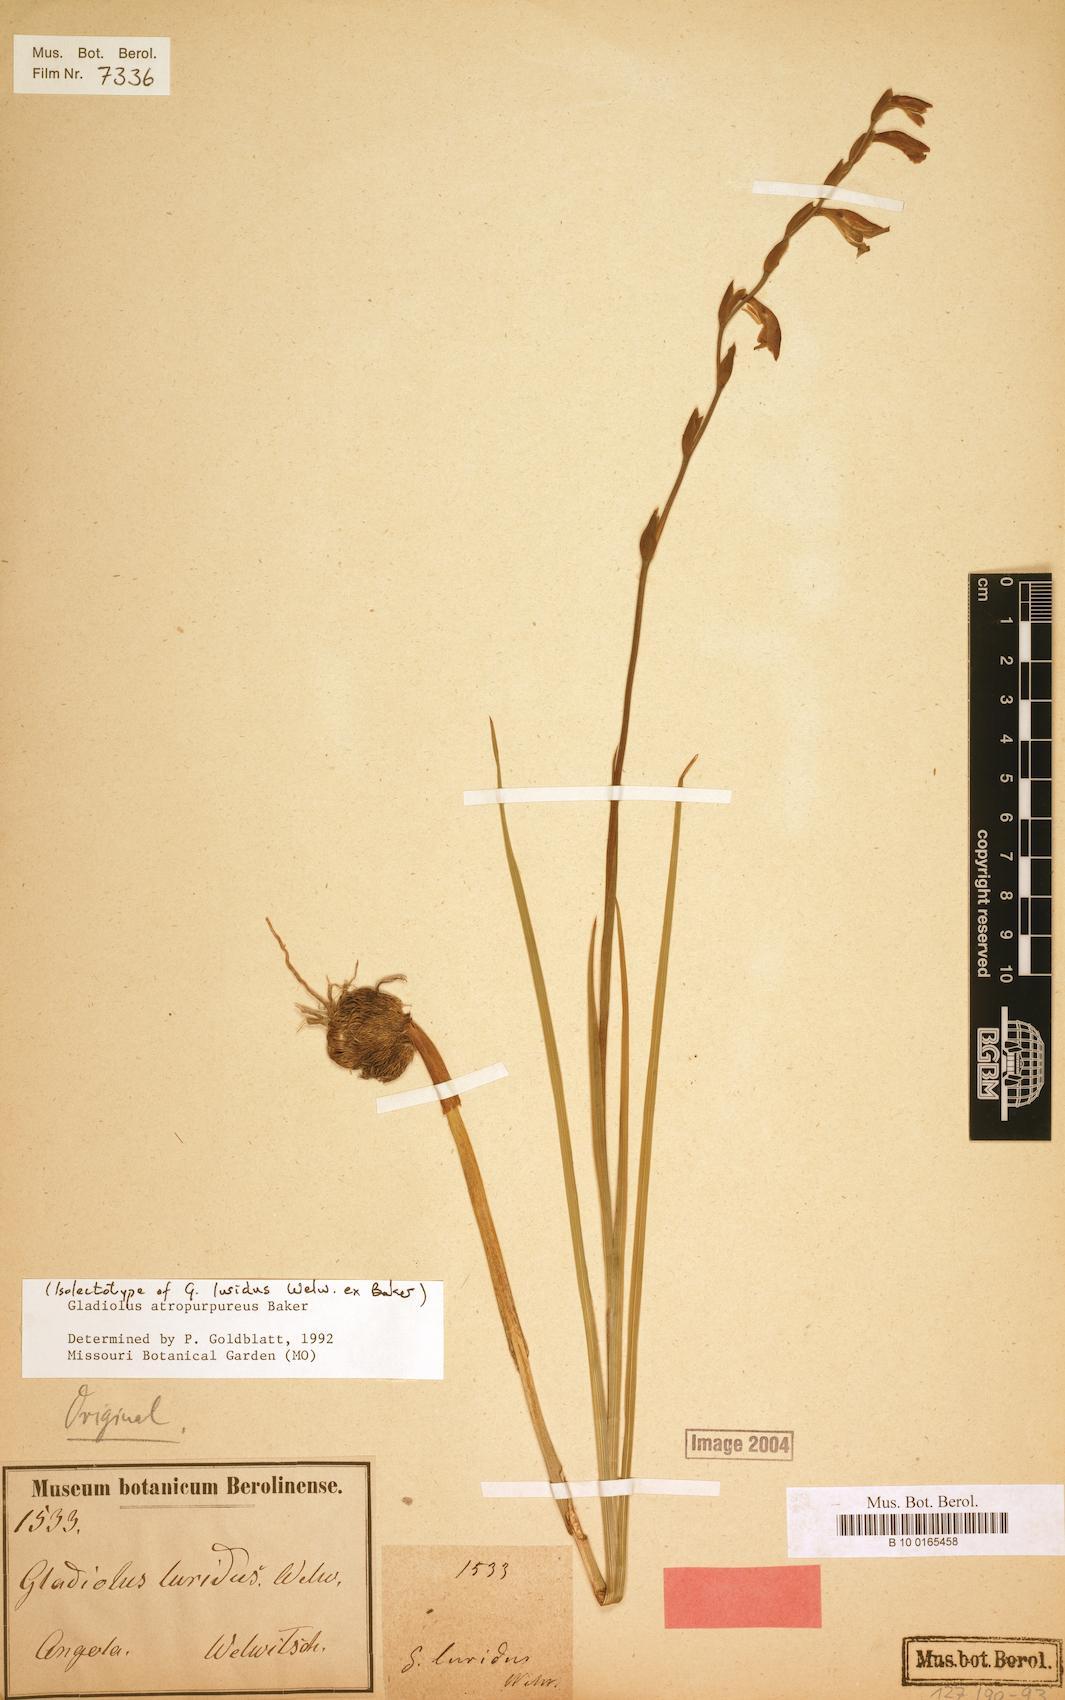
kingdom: Plantae
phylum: Tracheophyta
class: Liliopsida
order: Asparagales
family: Iridaceae
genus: Gladiolus
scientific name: Gladiolus atropurpureus
